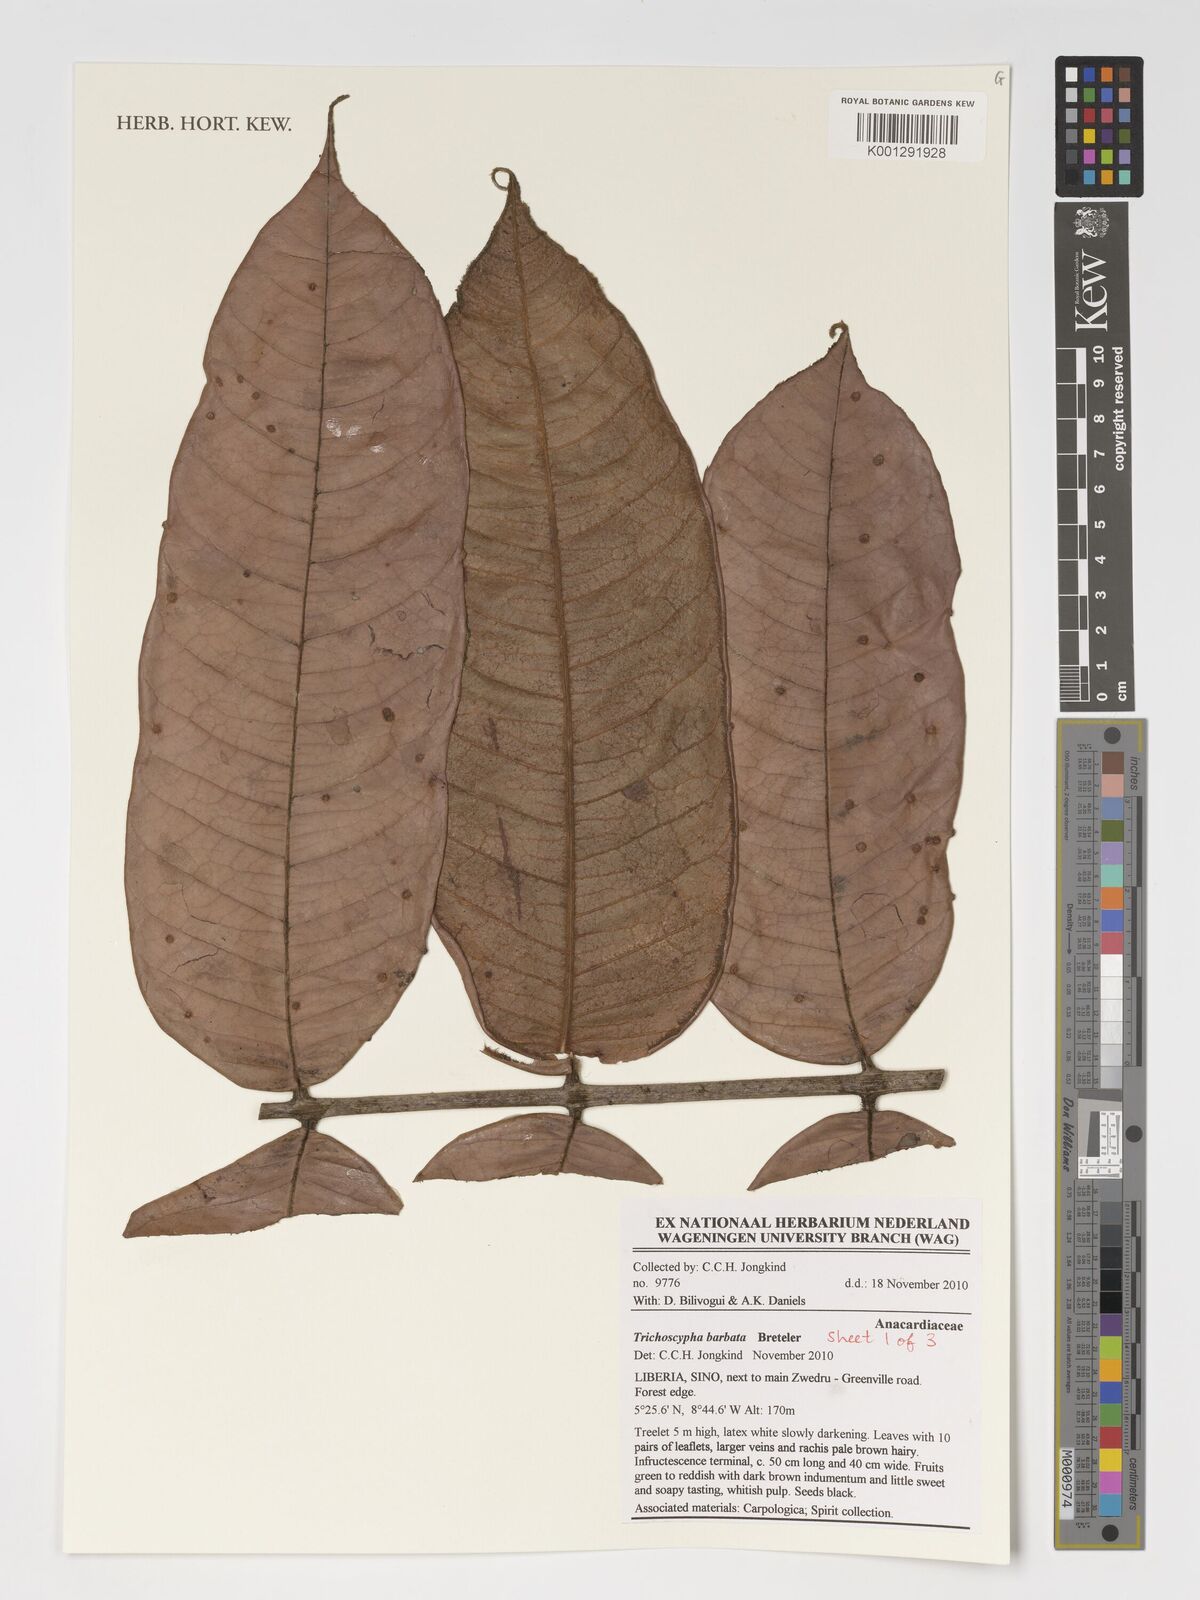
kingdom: Plantae
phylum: Tracheophyta
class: Magnoliopsida
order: Sapindales
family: Anacardiaceae
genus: Trichoscypha
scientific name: Trichoscypha barbata
